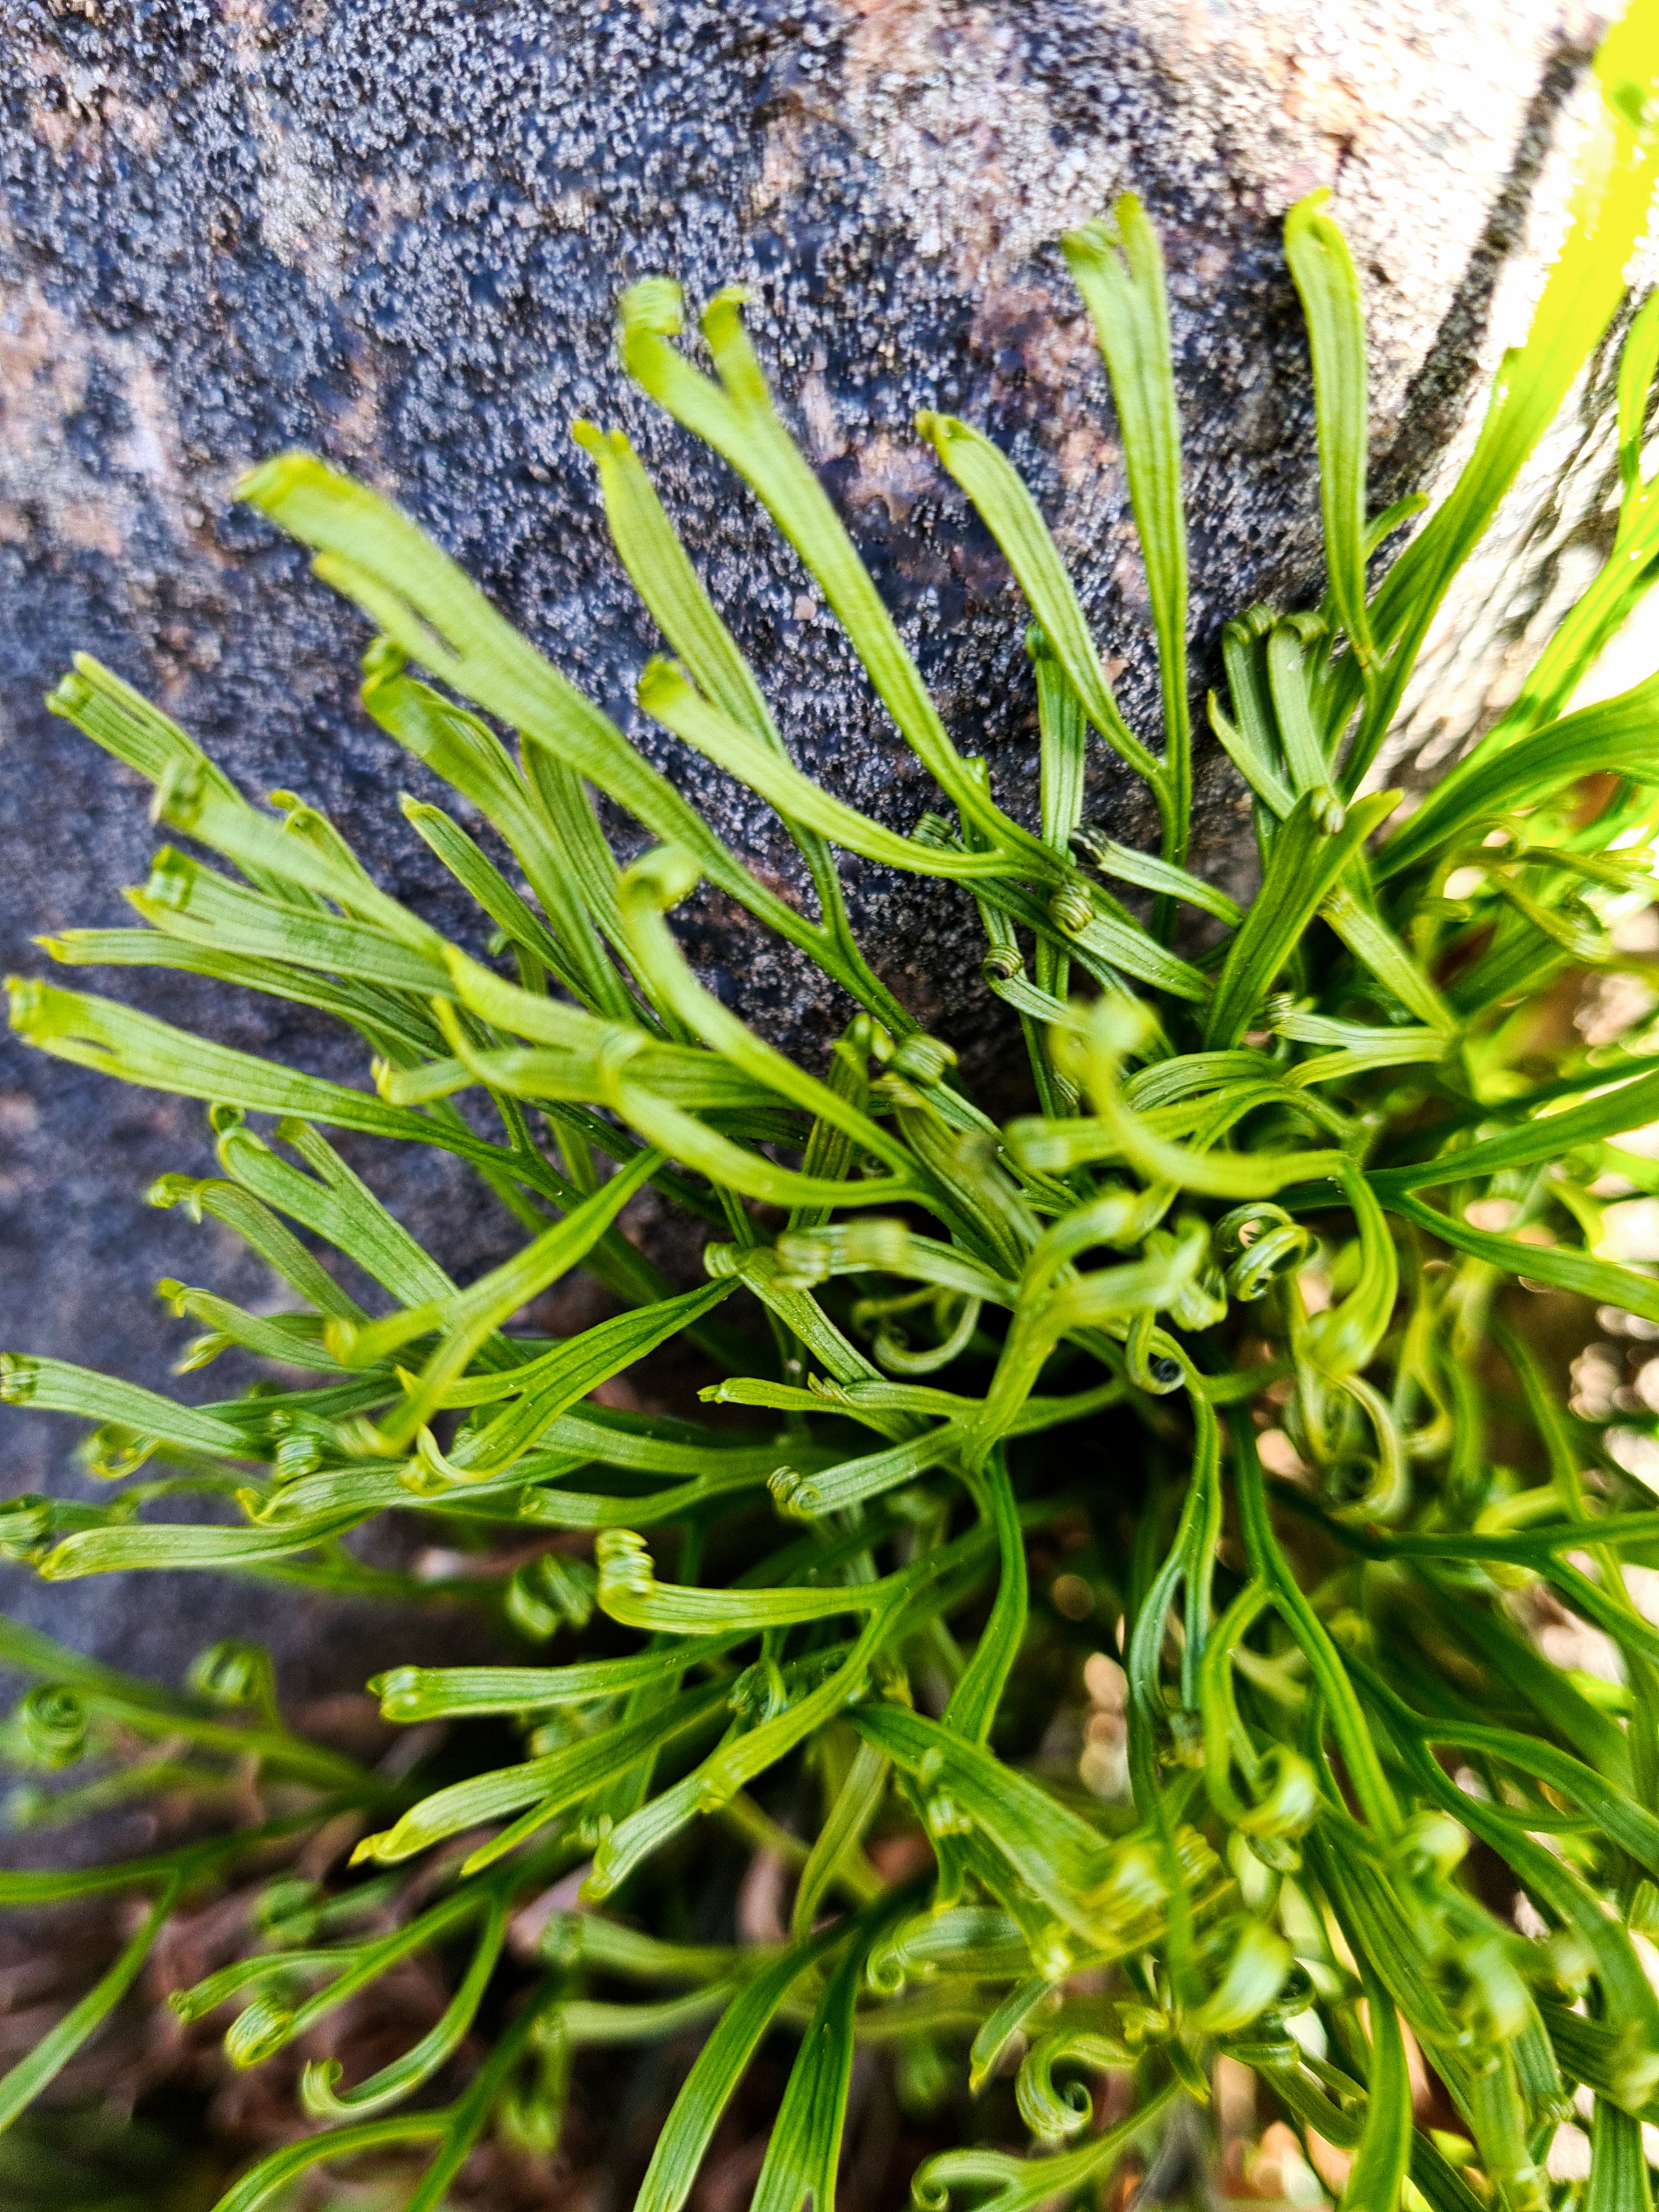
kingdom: Plantae
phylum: Tracheophyta
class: Polypodiopsida
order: Polypodiales
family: Aspleniaceae
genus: Asplenium
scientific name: Asplenium septentrionale
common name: Nordisk radeløv
